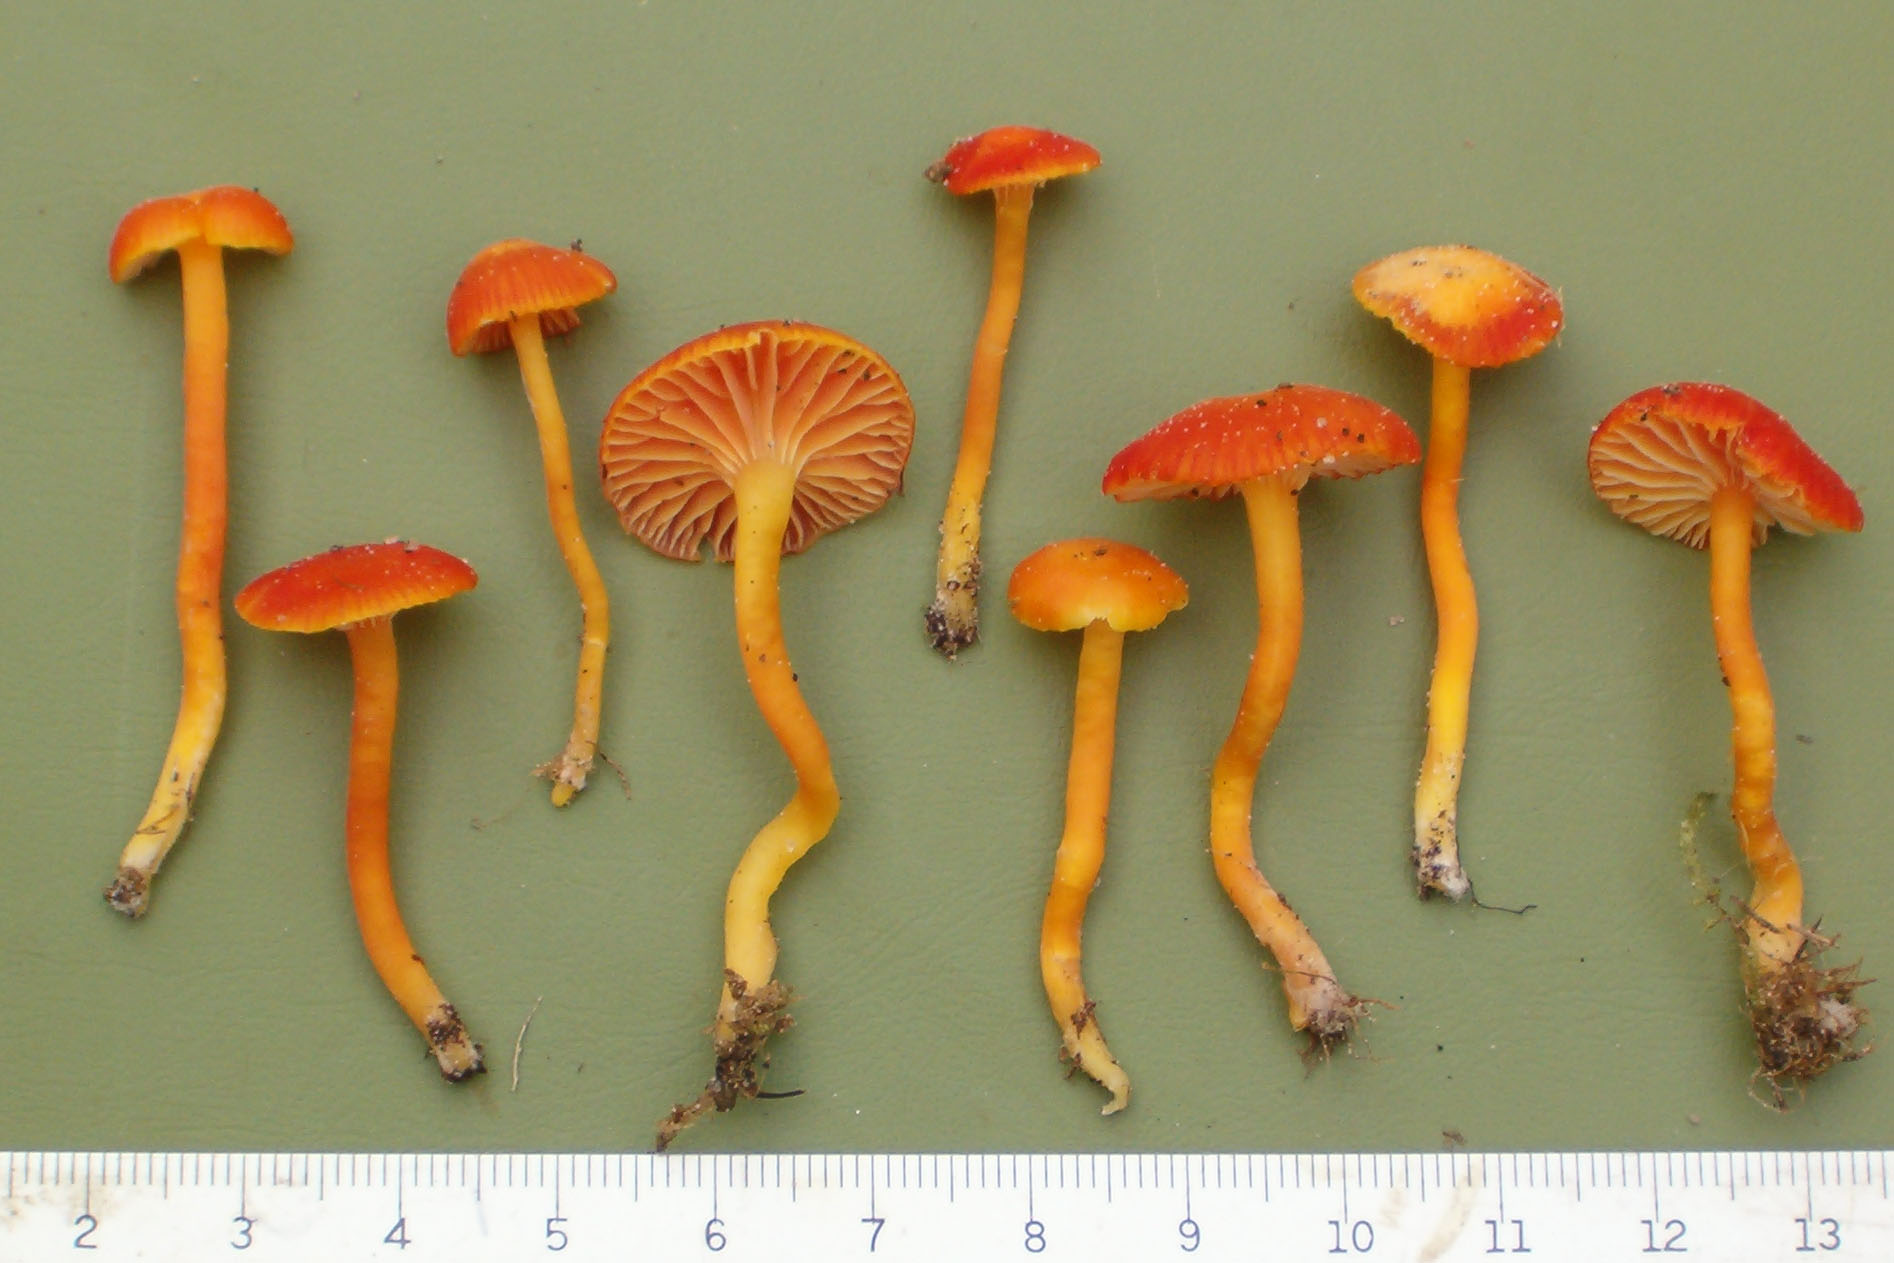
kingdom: Fungi
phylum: Basidiomycota
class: Agaricomycetes
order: Agaricales
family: Hygrophoraceae
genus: Hygrocybe
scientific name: Hygrocybe constrictospora
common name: koralrød vokshat
